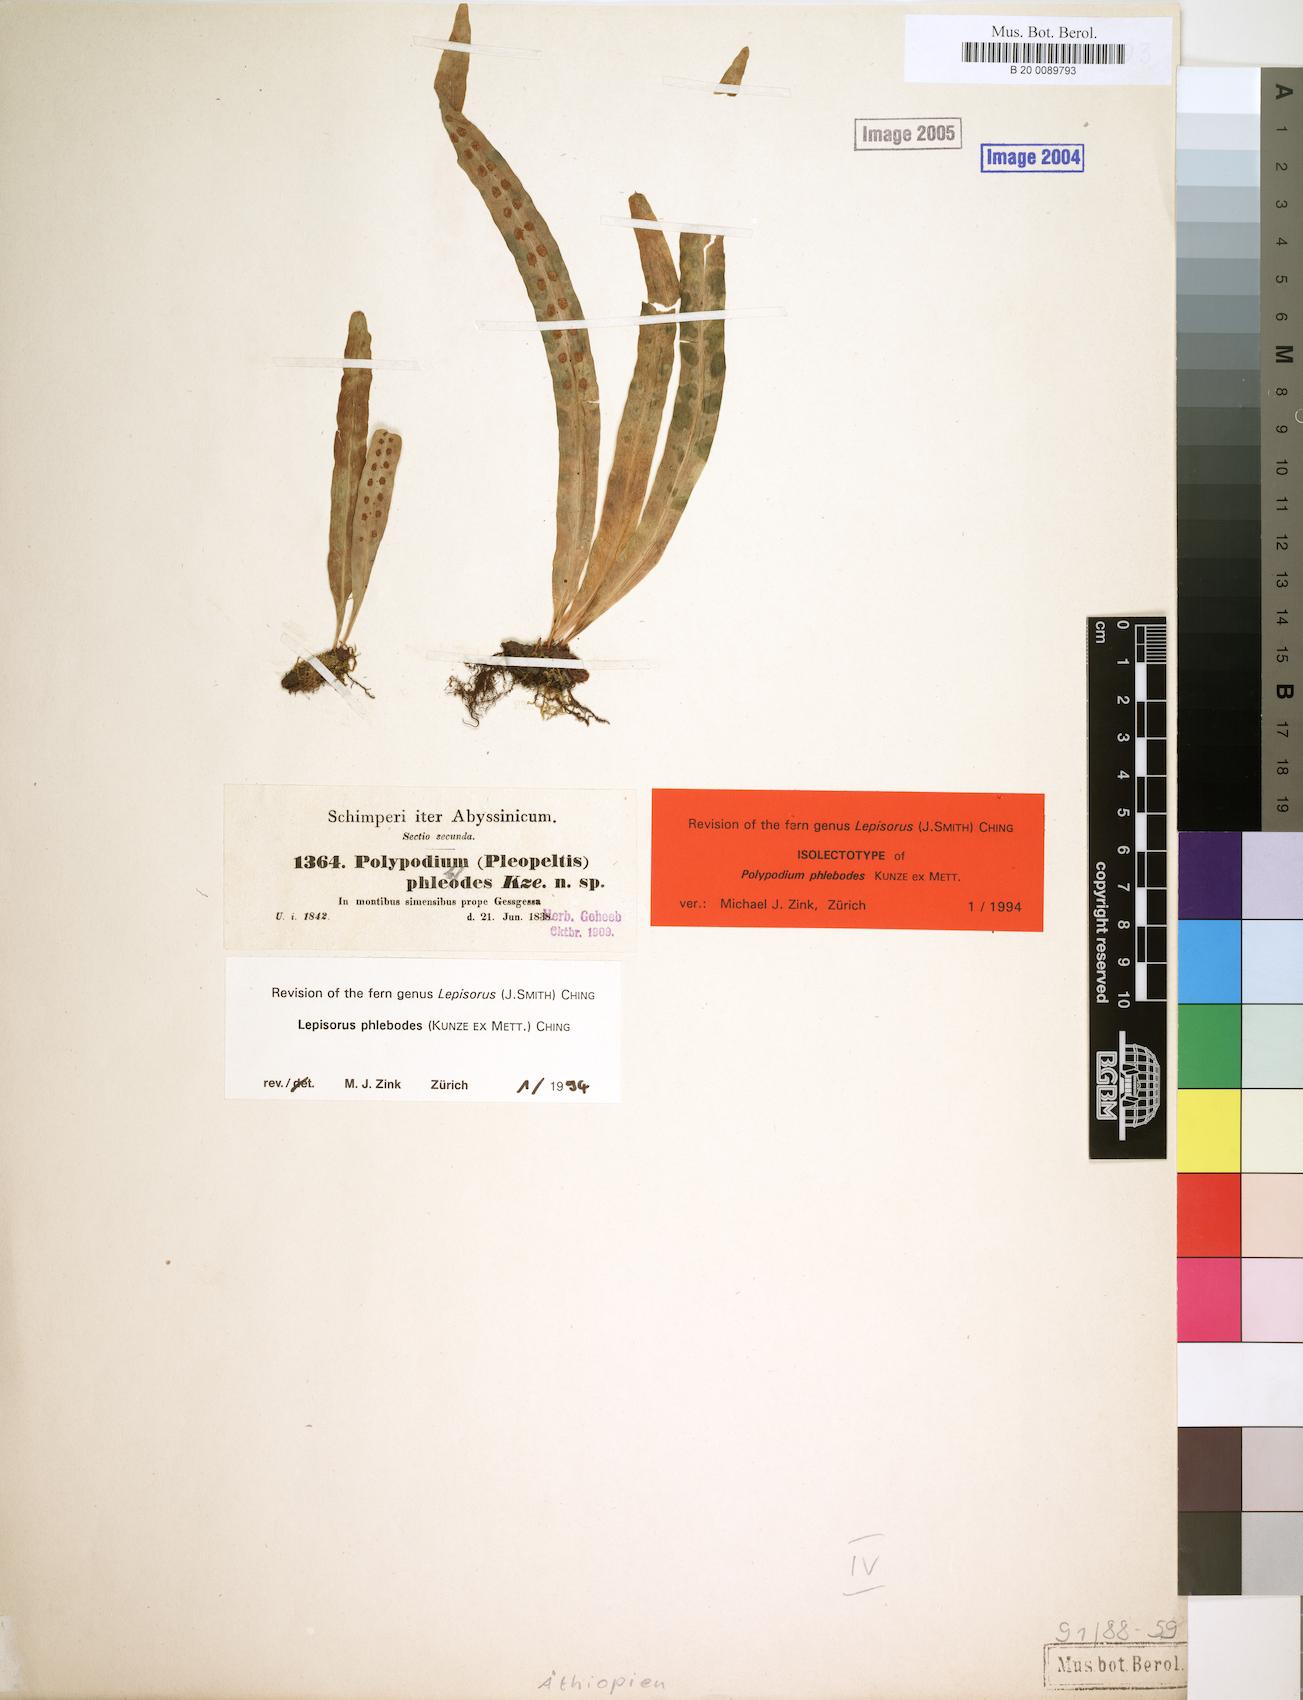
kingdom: Plantae
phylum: Tracheophyta
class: Polypodiopsida
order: Polypodiales
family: Polypodiaceae
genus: Lepisorus
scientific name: Lepisorus excavatus
